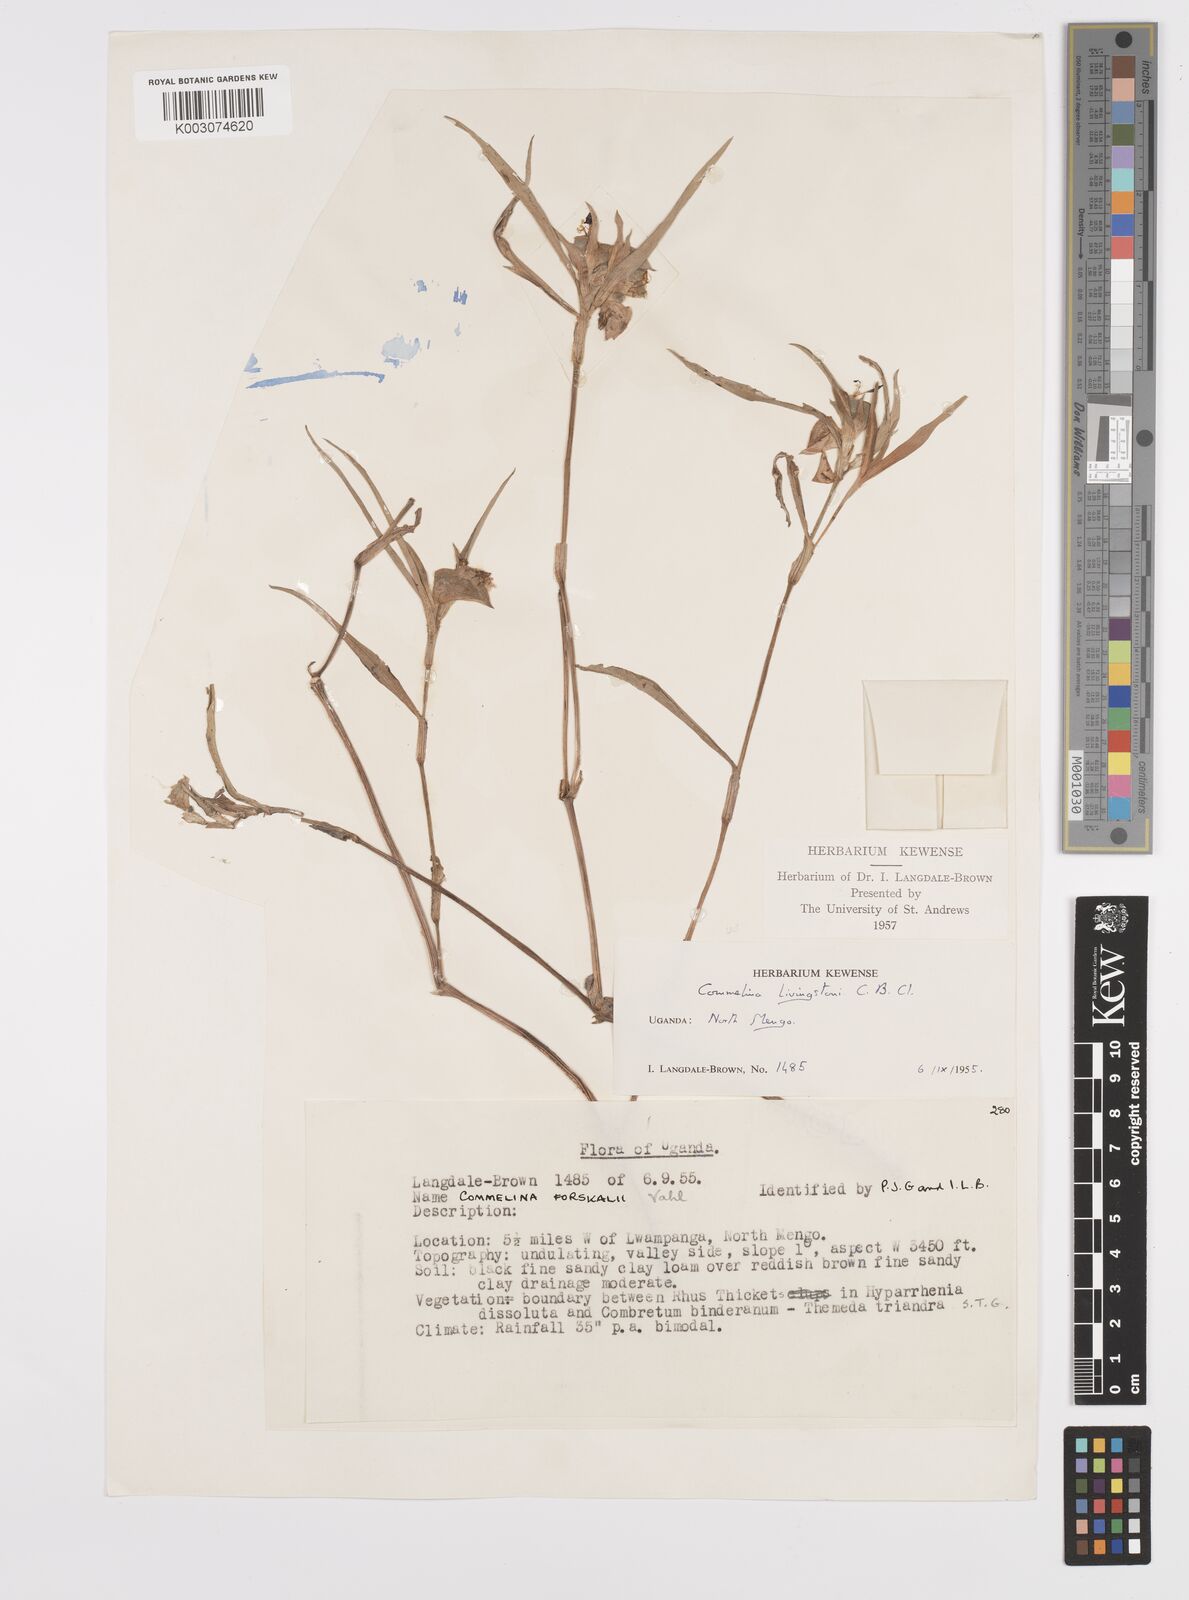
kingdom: Plantae
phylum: Tracheophyta
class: Liliopsida
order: Commelinales
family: Commelinaceae
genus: Commelina
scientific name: Commelina erecta
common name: Blousel blommetjie
